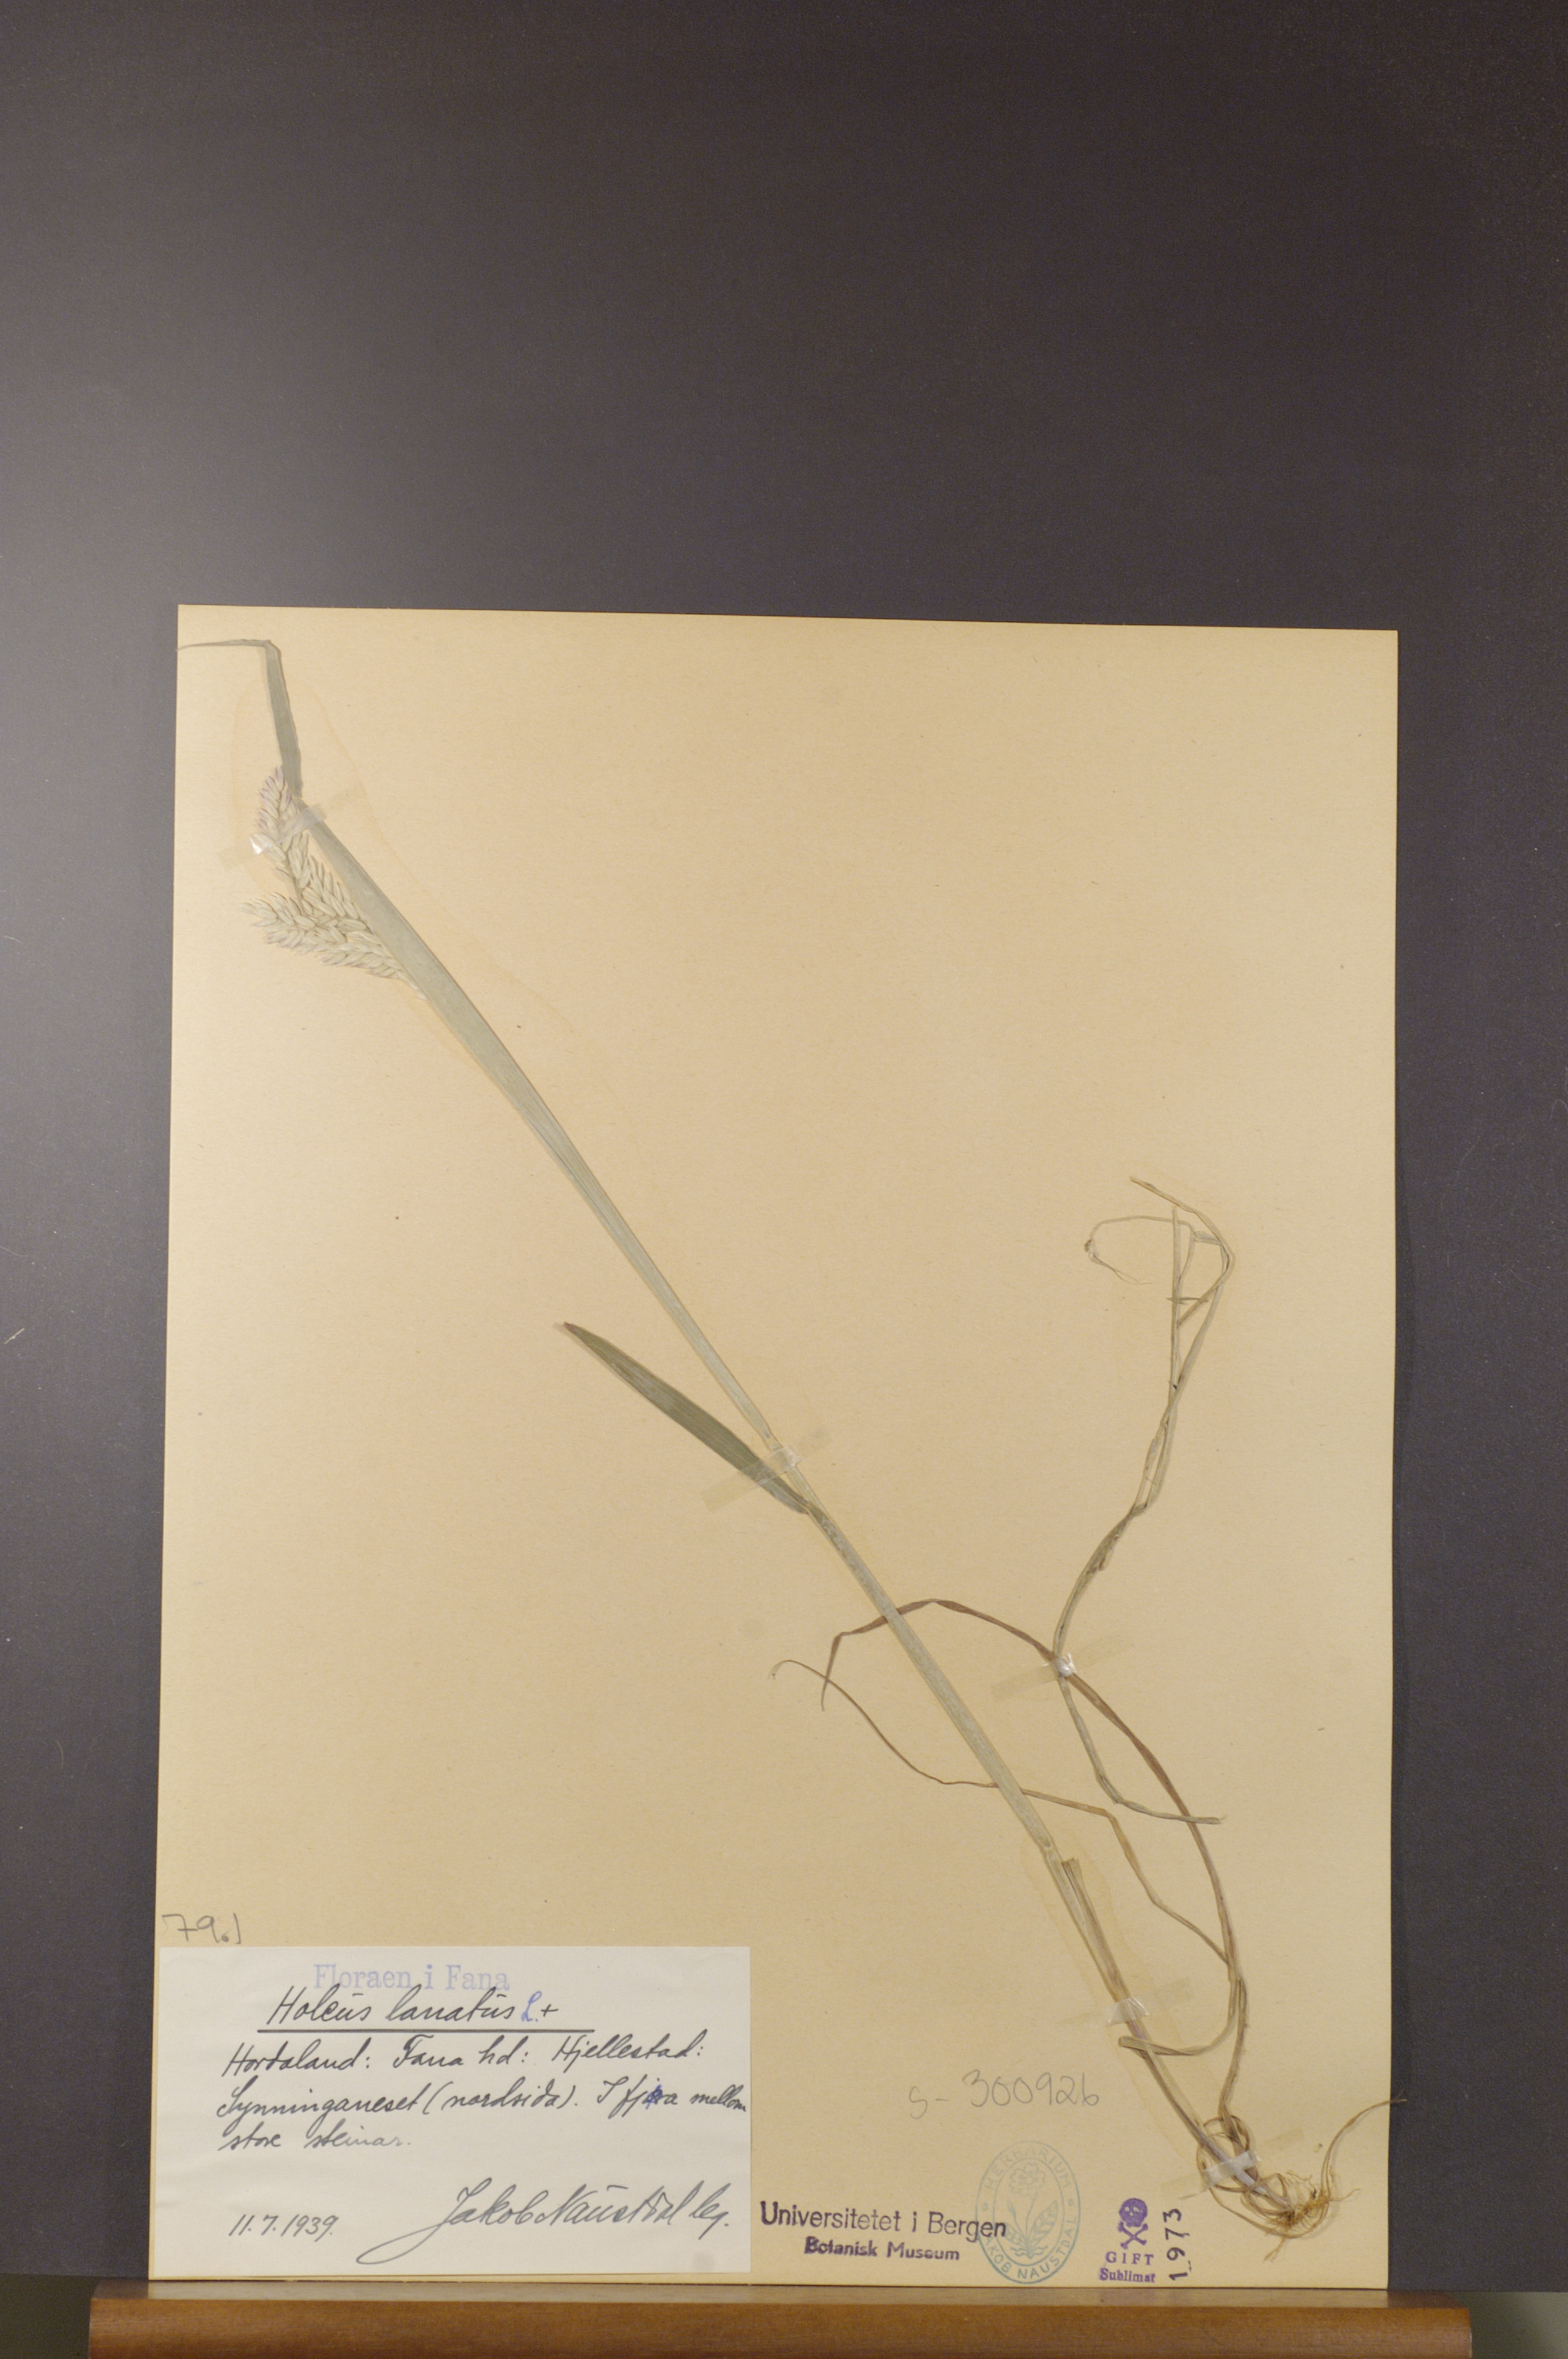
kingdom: Plantae
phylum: Tracheophyta
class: Liliopsida
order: Poales
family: Poaceae
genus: Holcus
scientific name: Holcus lanatus
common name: Yorkshire-fog
